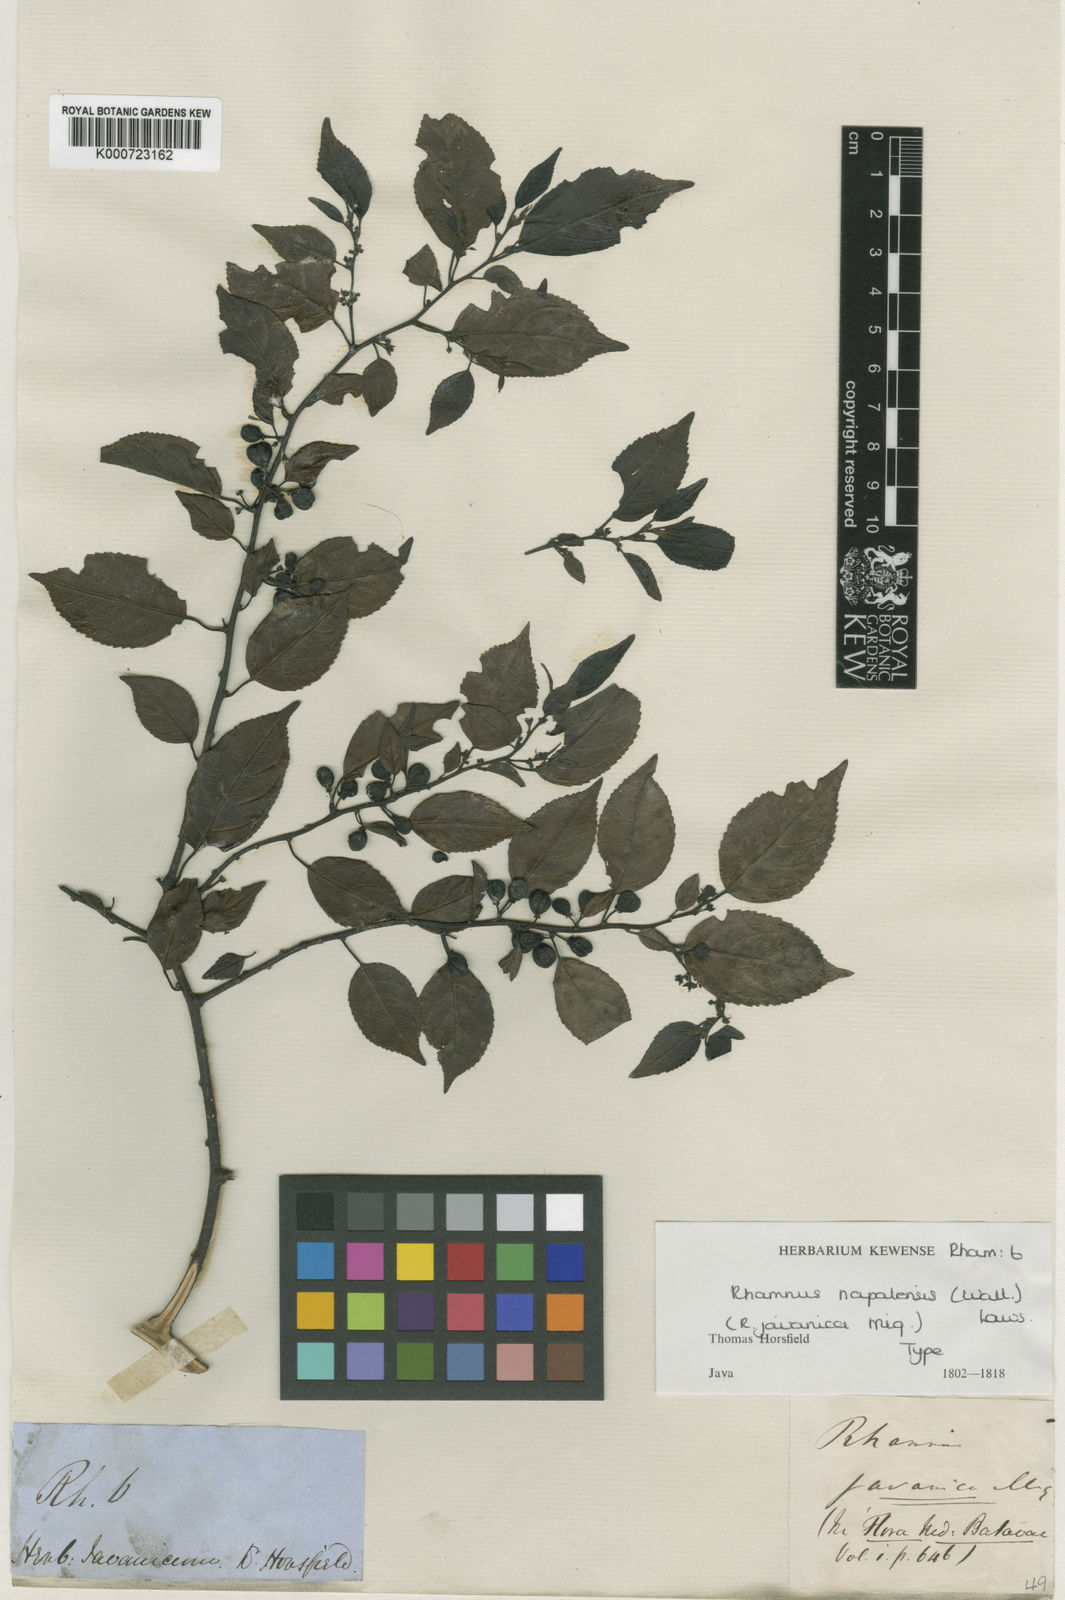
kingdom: Plantae
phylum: Tracheophyta
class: Magnoliopsida
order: Rosales
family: Rhamnaceae
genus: Rhamnus
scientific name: Rhamnus javanica
